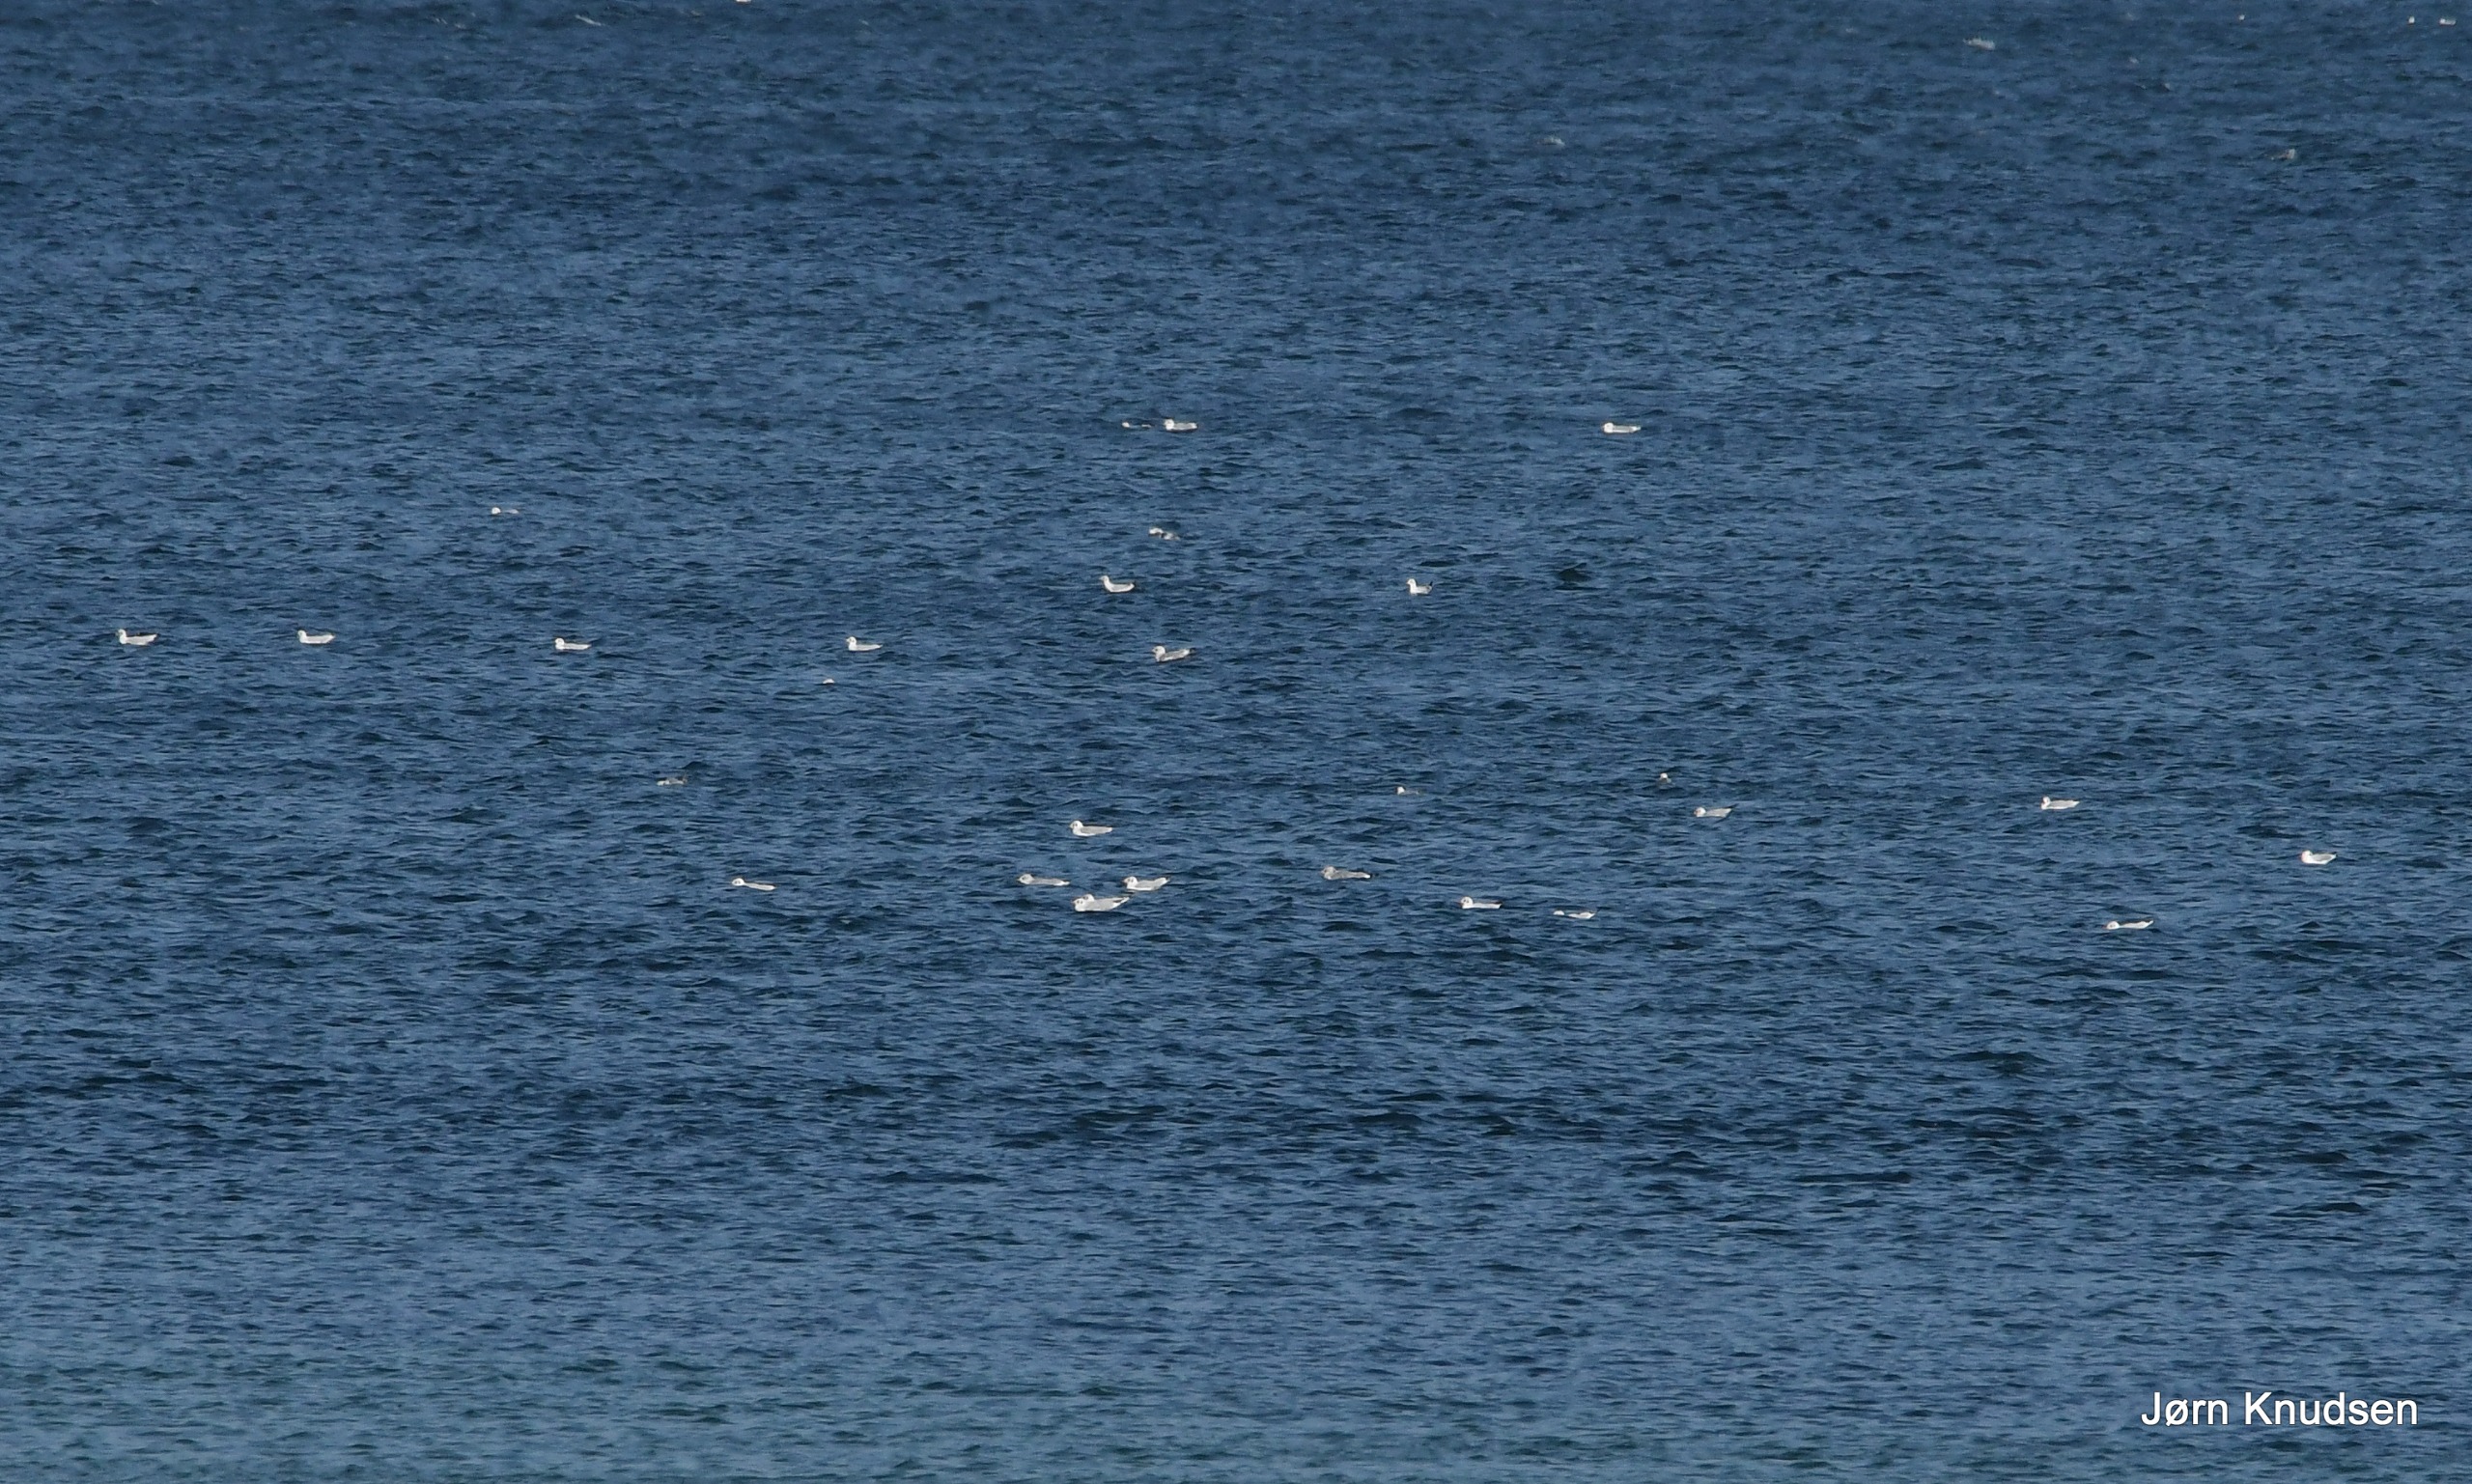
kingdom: Animalia
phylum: Chordata
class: Aves
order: Charadriiformes
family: Laridae
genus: Chroicocephalus
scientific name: Chroicocephalus ridibundus
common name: Hættemåge
